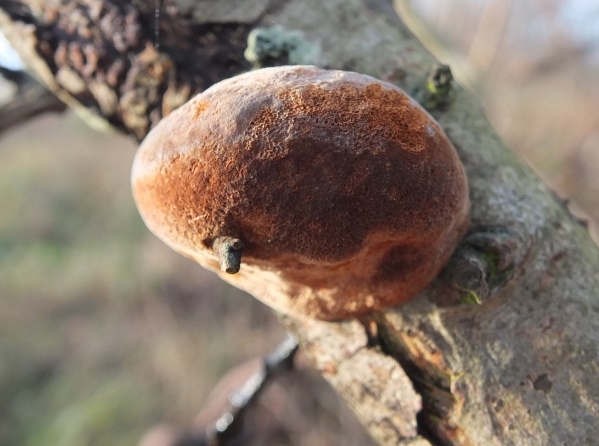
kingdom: Fungi
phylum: Basidiomycota
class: Agaricomycetes
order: Hymenochaetales
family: Hymenochaetaceae
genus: Fomitiporia
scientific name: Fomitiporia hippophaeicola
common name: havtorn-ildporesvamp
